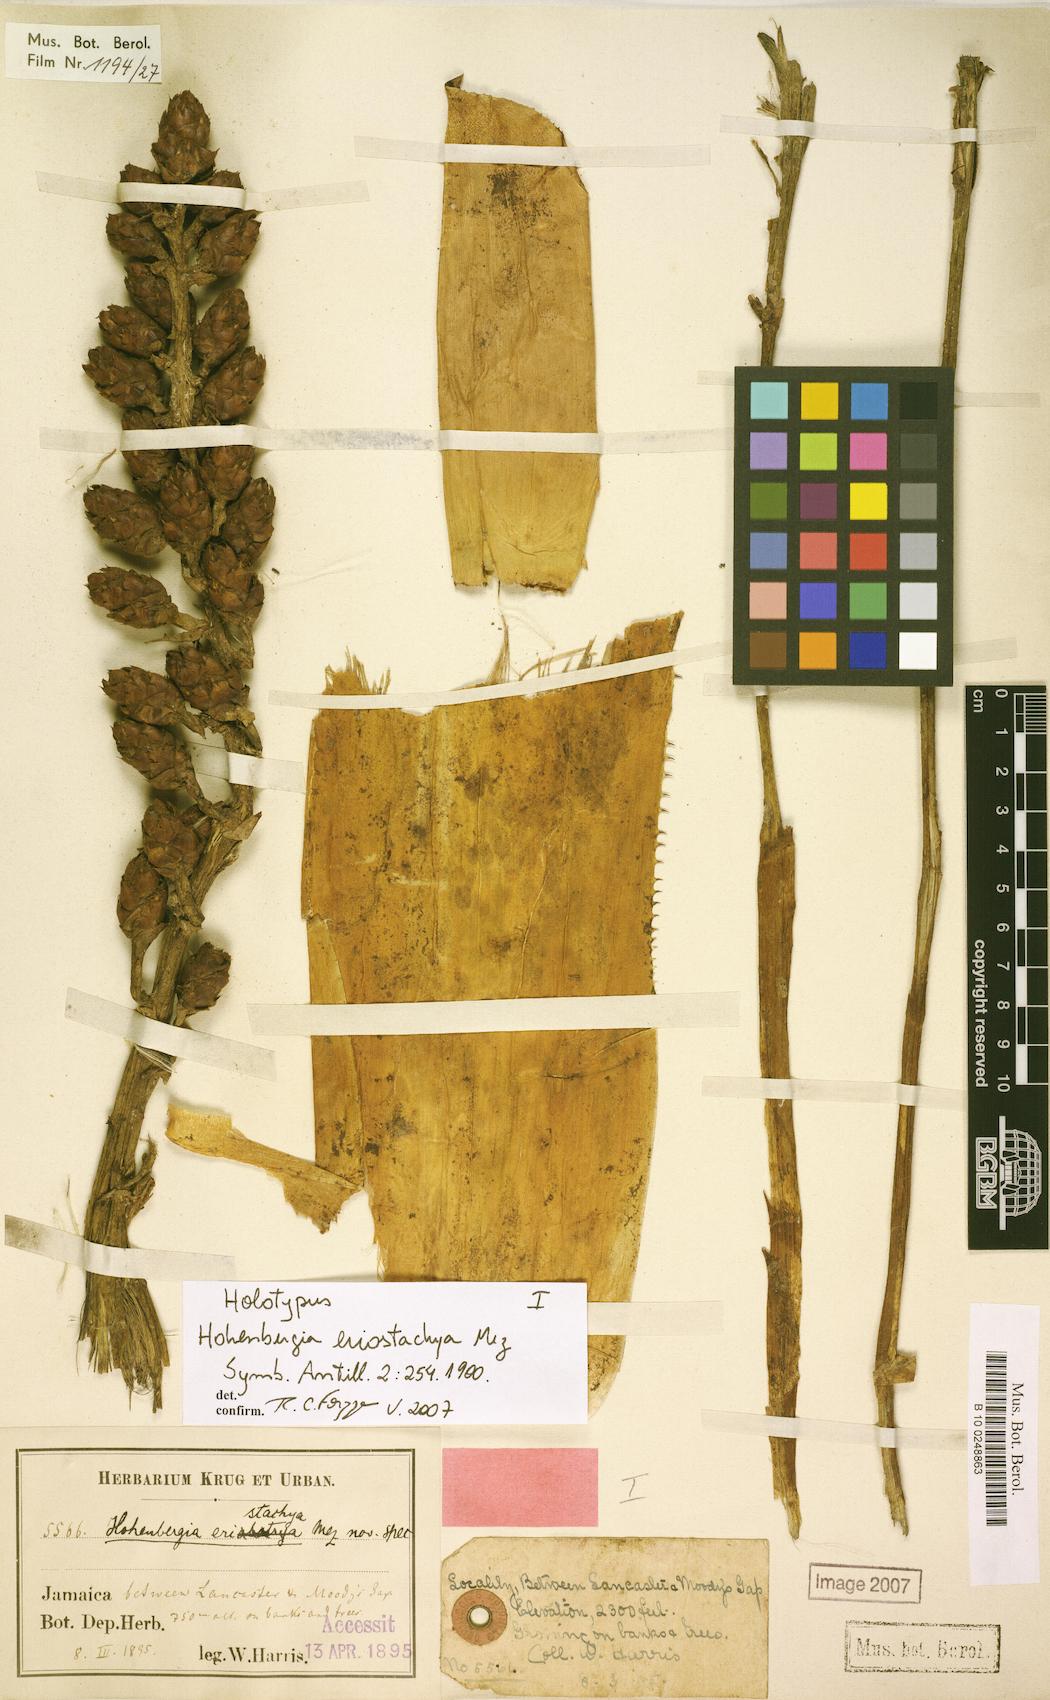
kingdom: Plantae
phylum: Tracheophyta
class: Liliopsida
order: Poales
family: Bromeliaceae
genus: Wittmackia
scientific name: Wittmackia eriostachya
